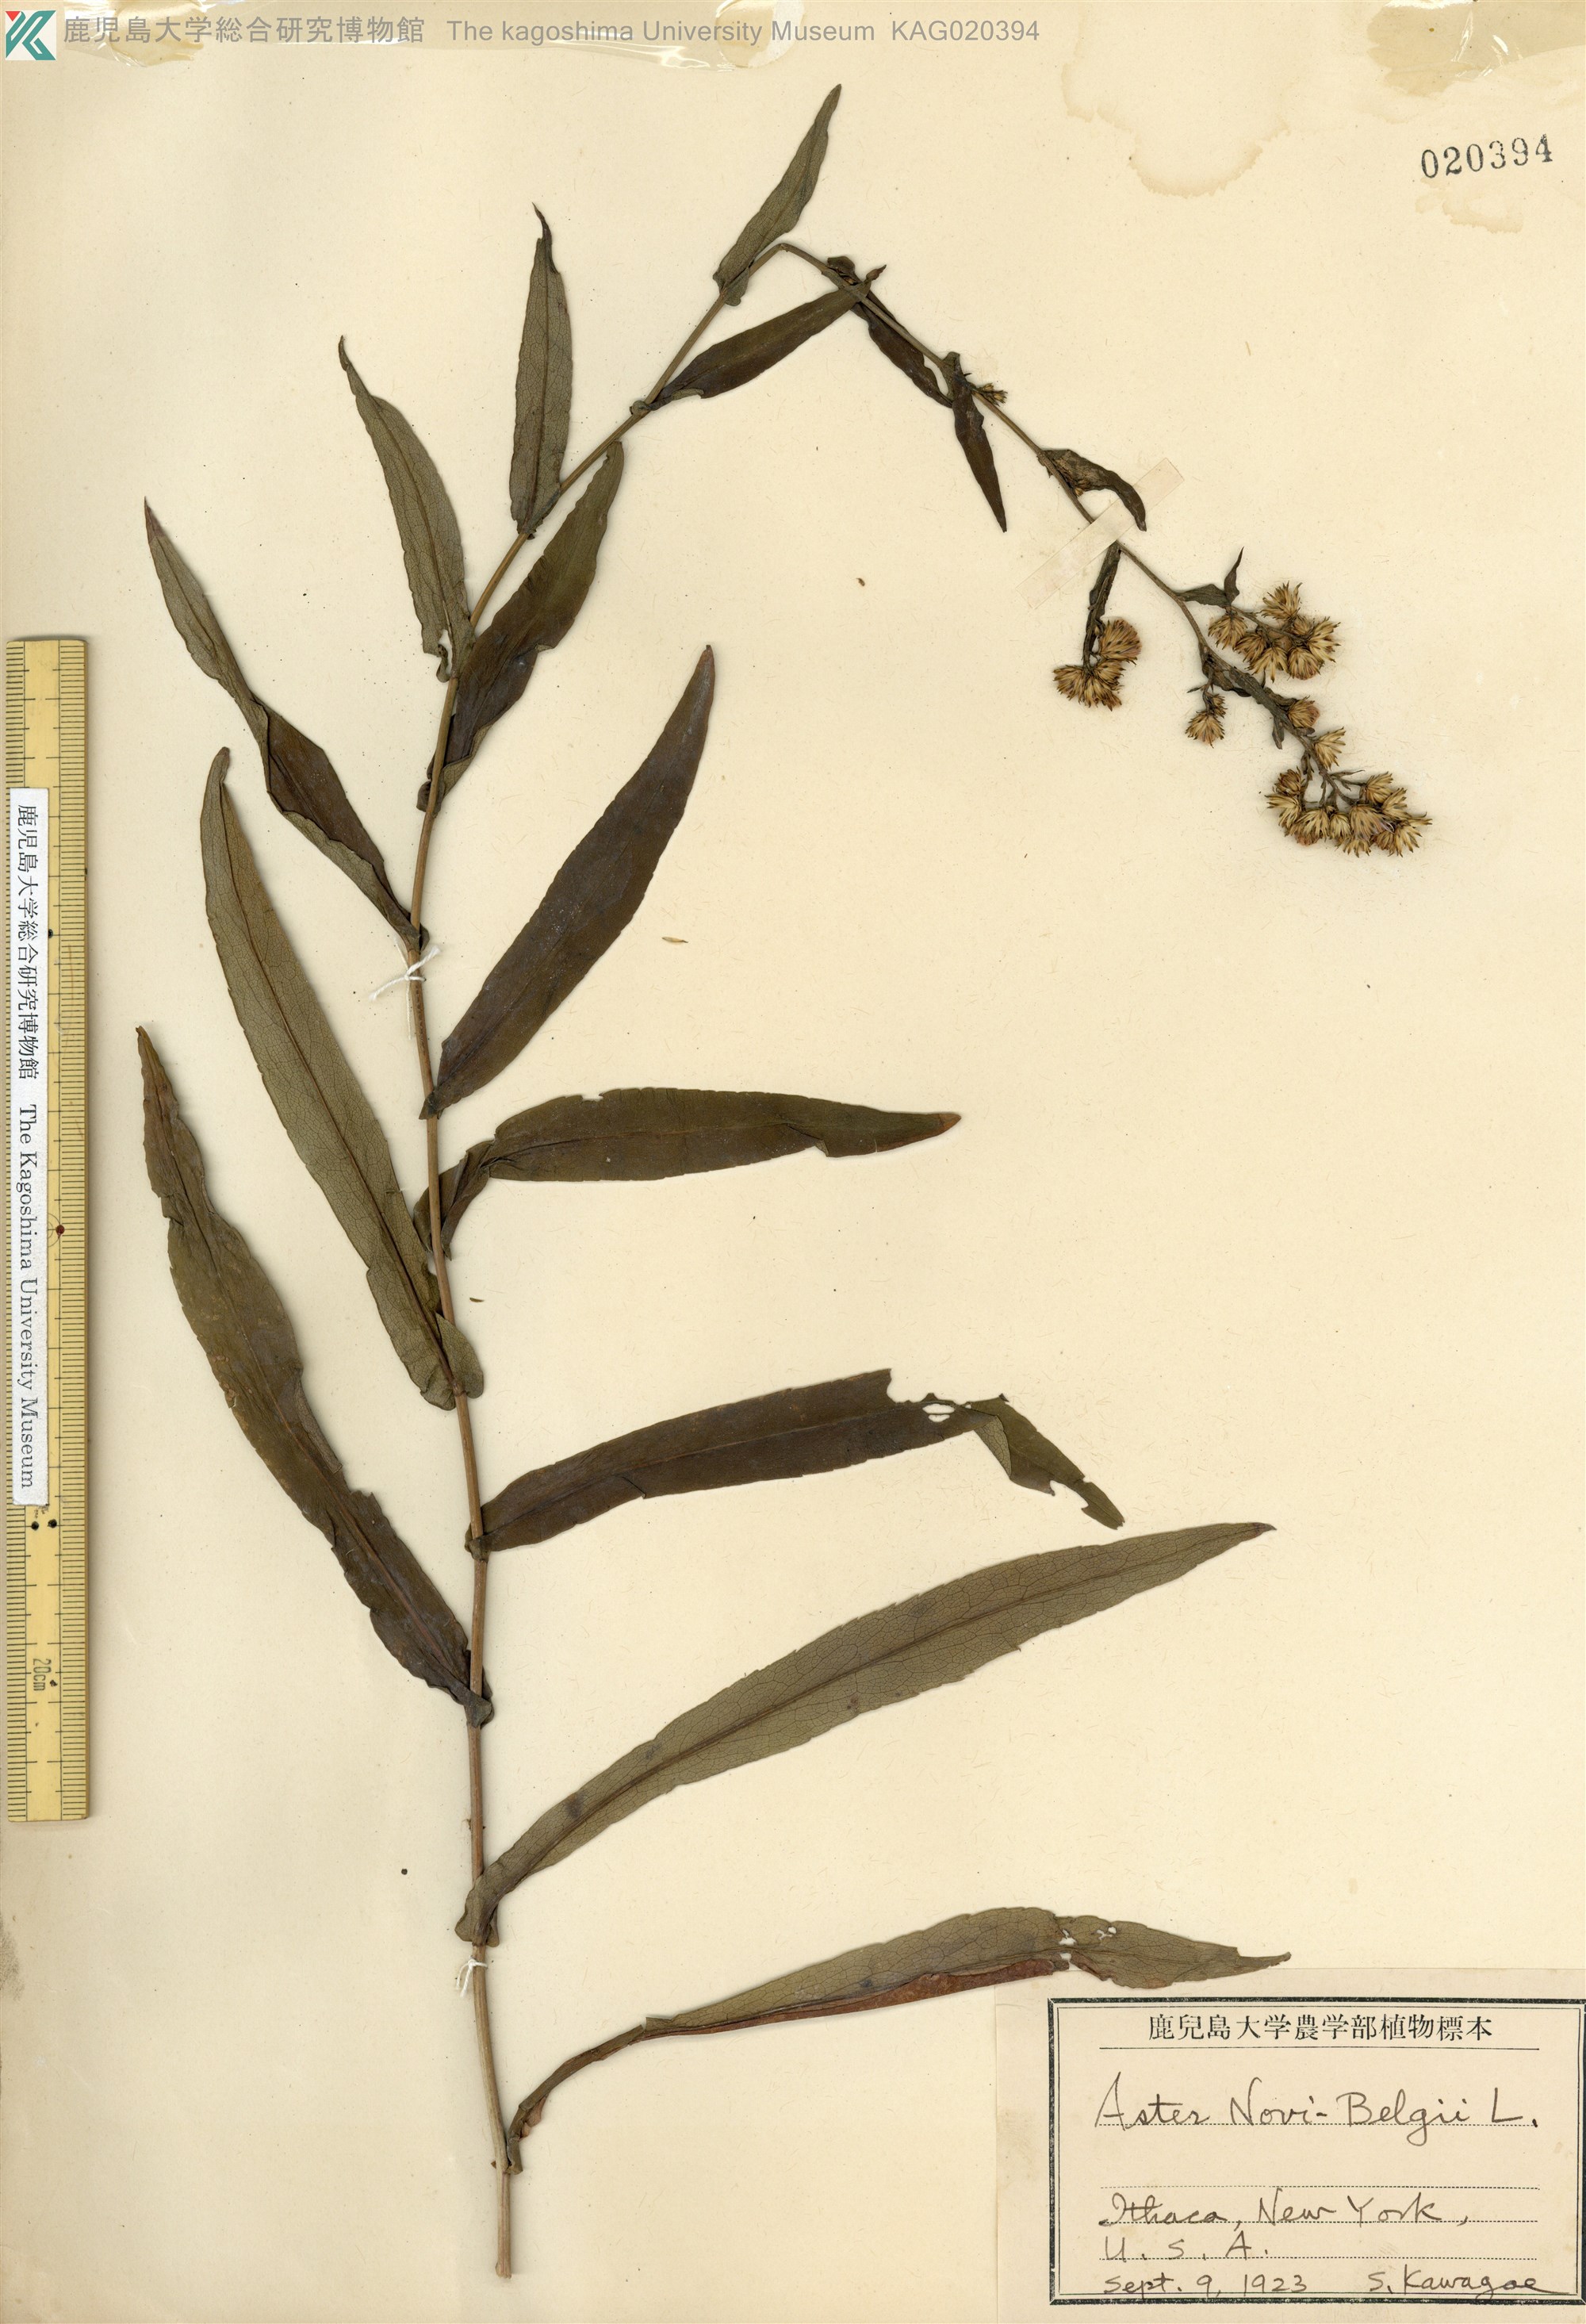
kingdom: Plantae
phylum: Tracheophyta
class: Magnoliopsida
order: Asterales
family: Asteraceae
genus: Symphyotrichum
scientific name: Symphyotrichum novi-belgii
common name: Michaelmas daisy
